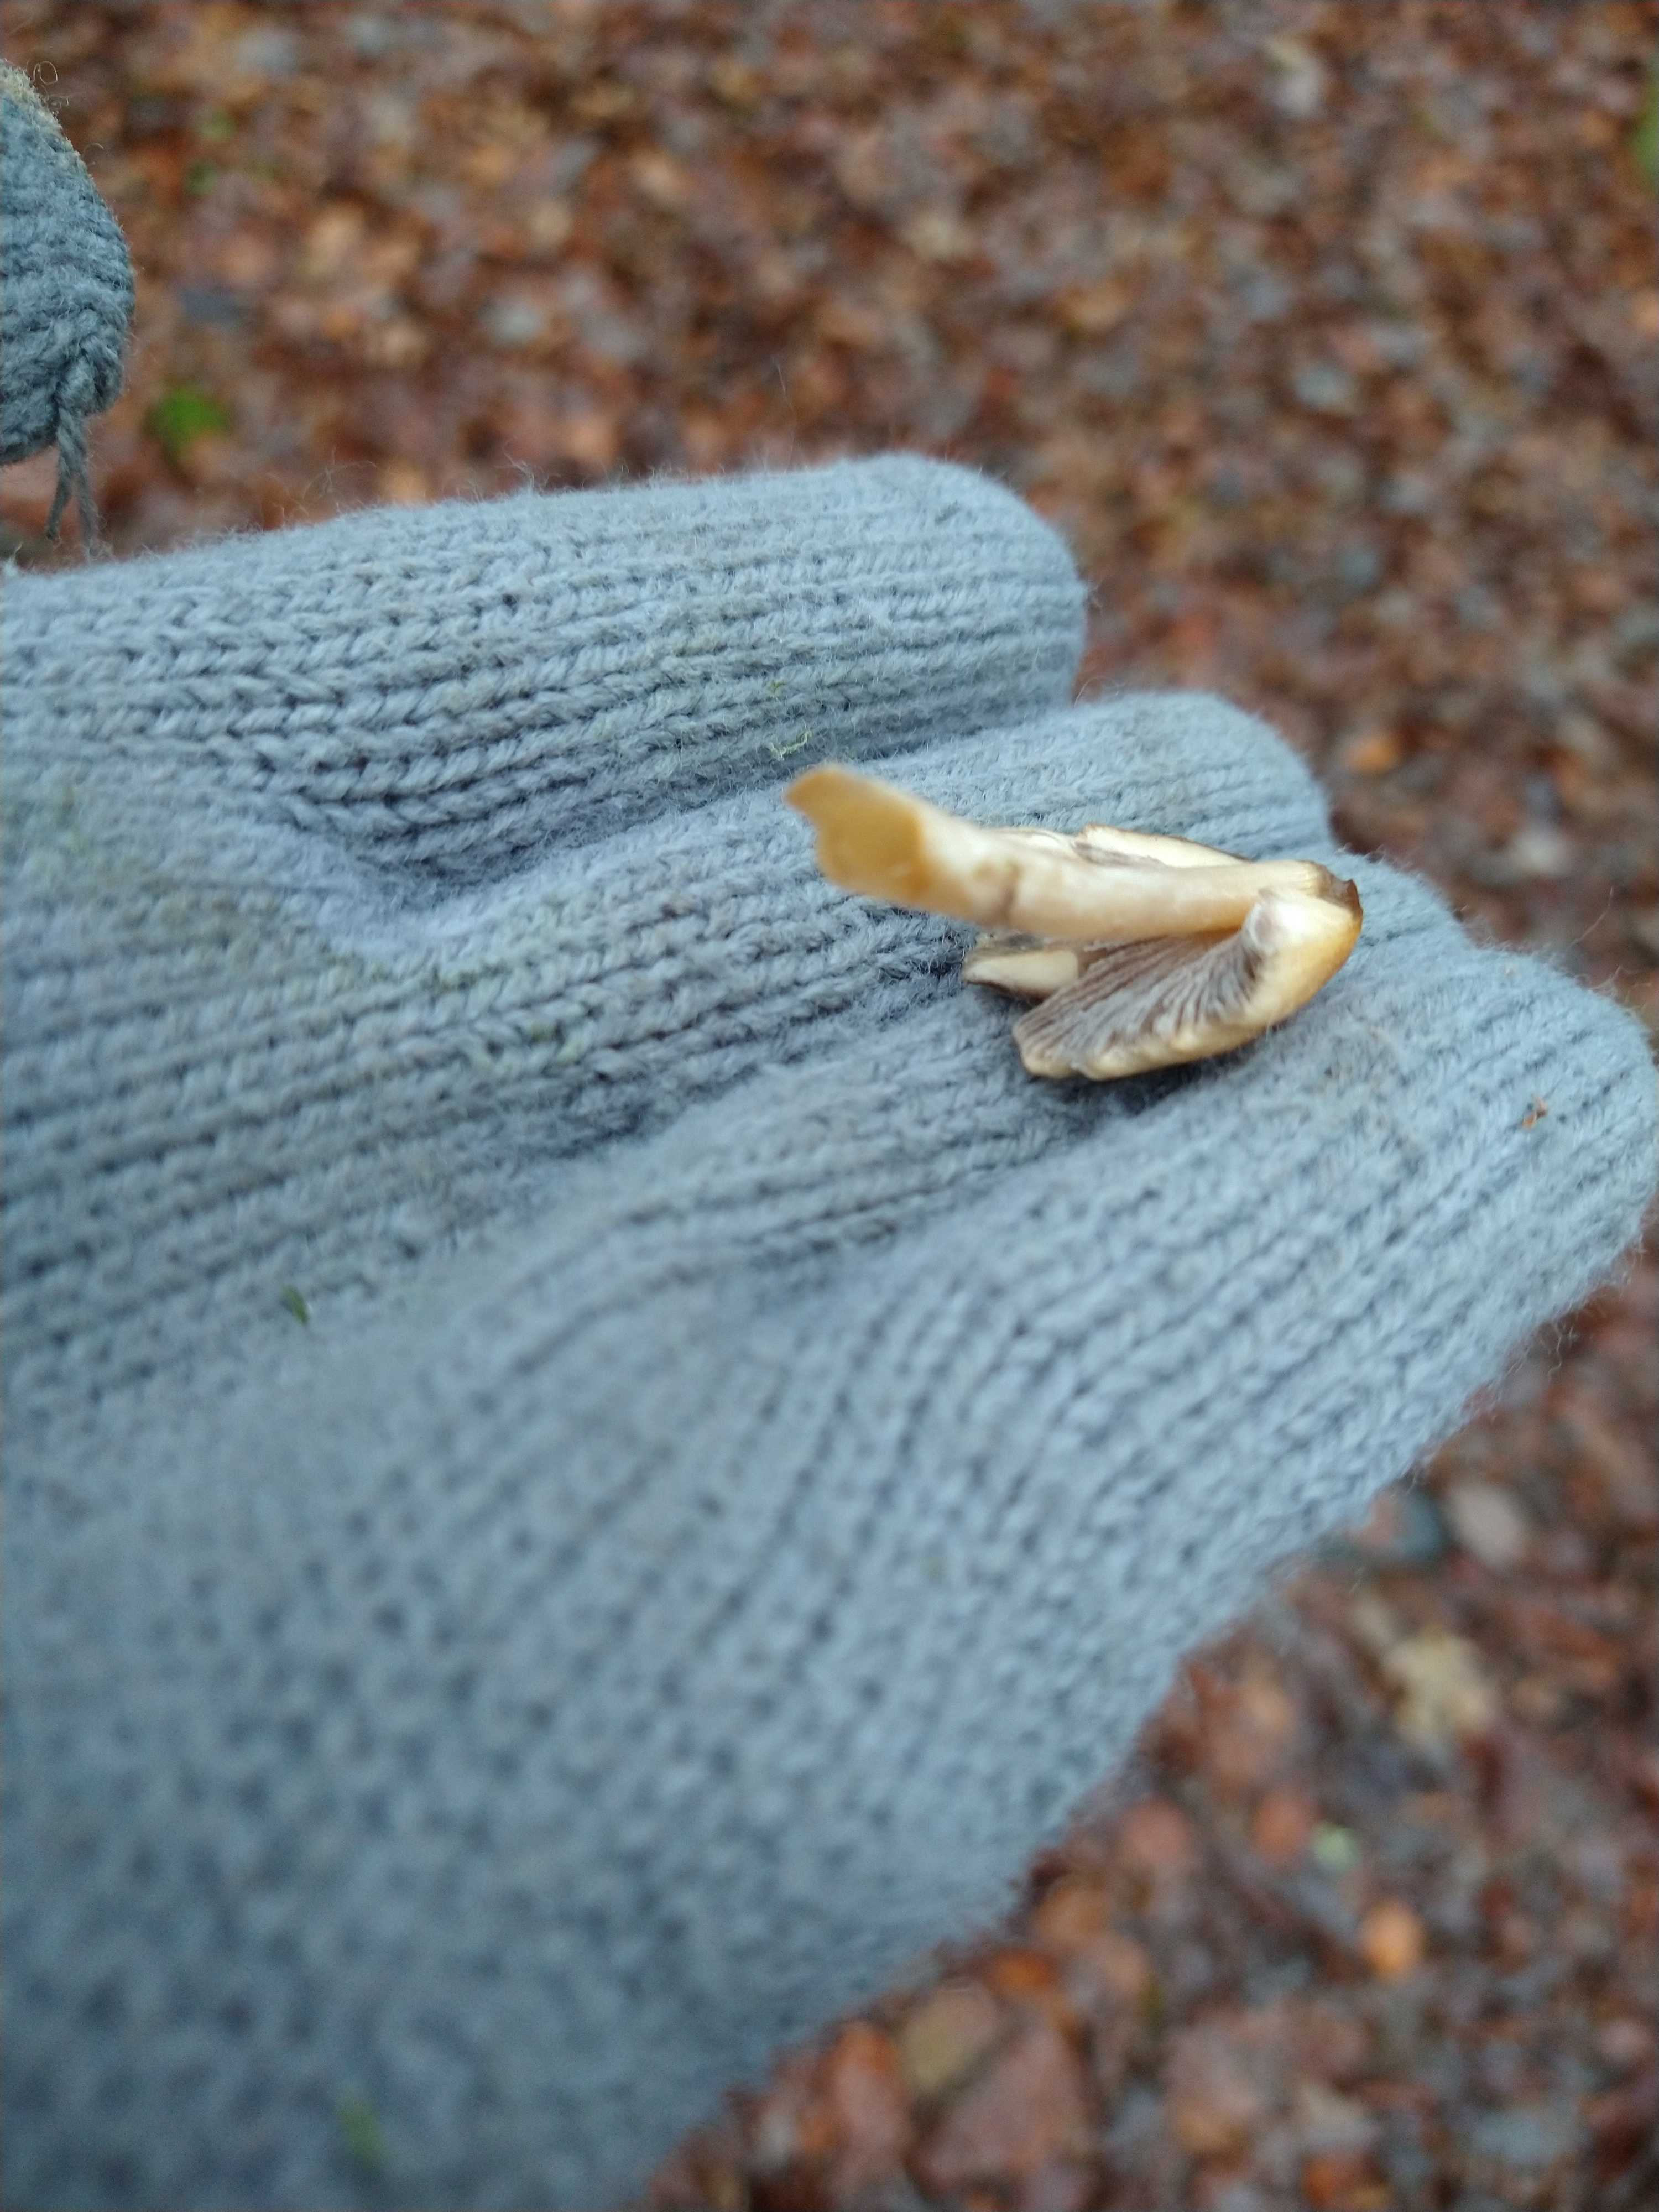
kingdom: Fungi
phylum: Basidiomycota
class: Agaricomycetes
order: Agaricales
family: Psathyrellaceae
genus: Coprinellus
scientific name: Coprinellus
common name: blækhat
